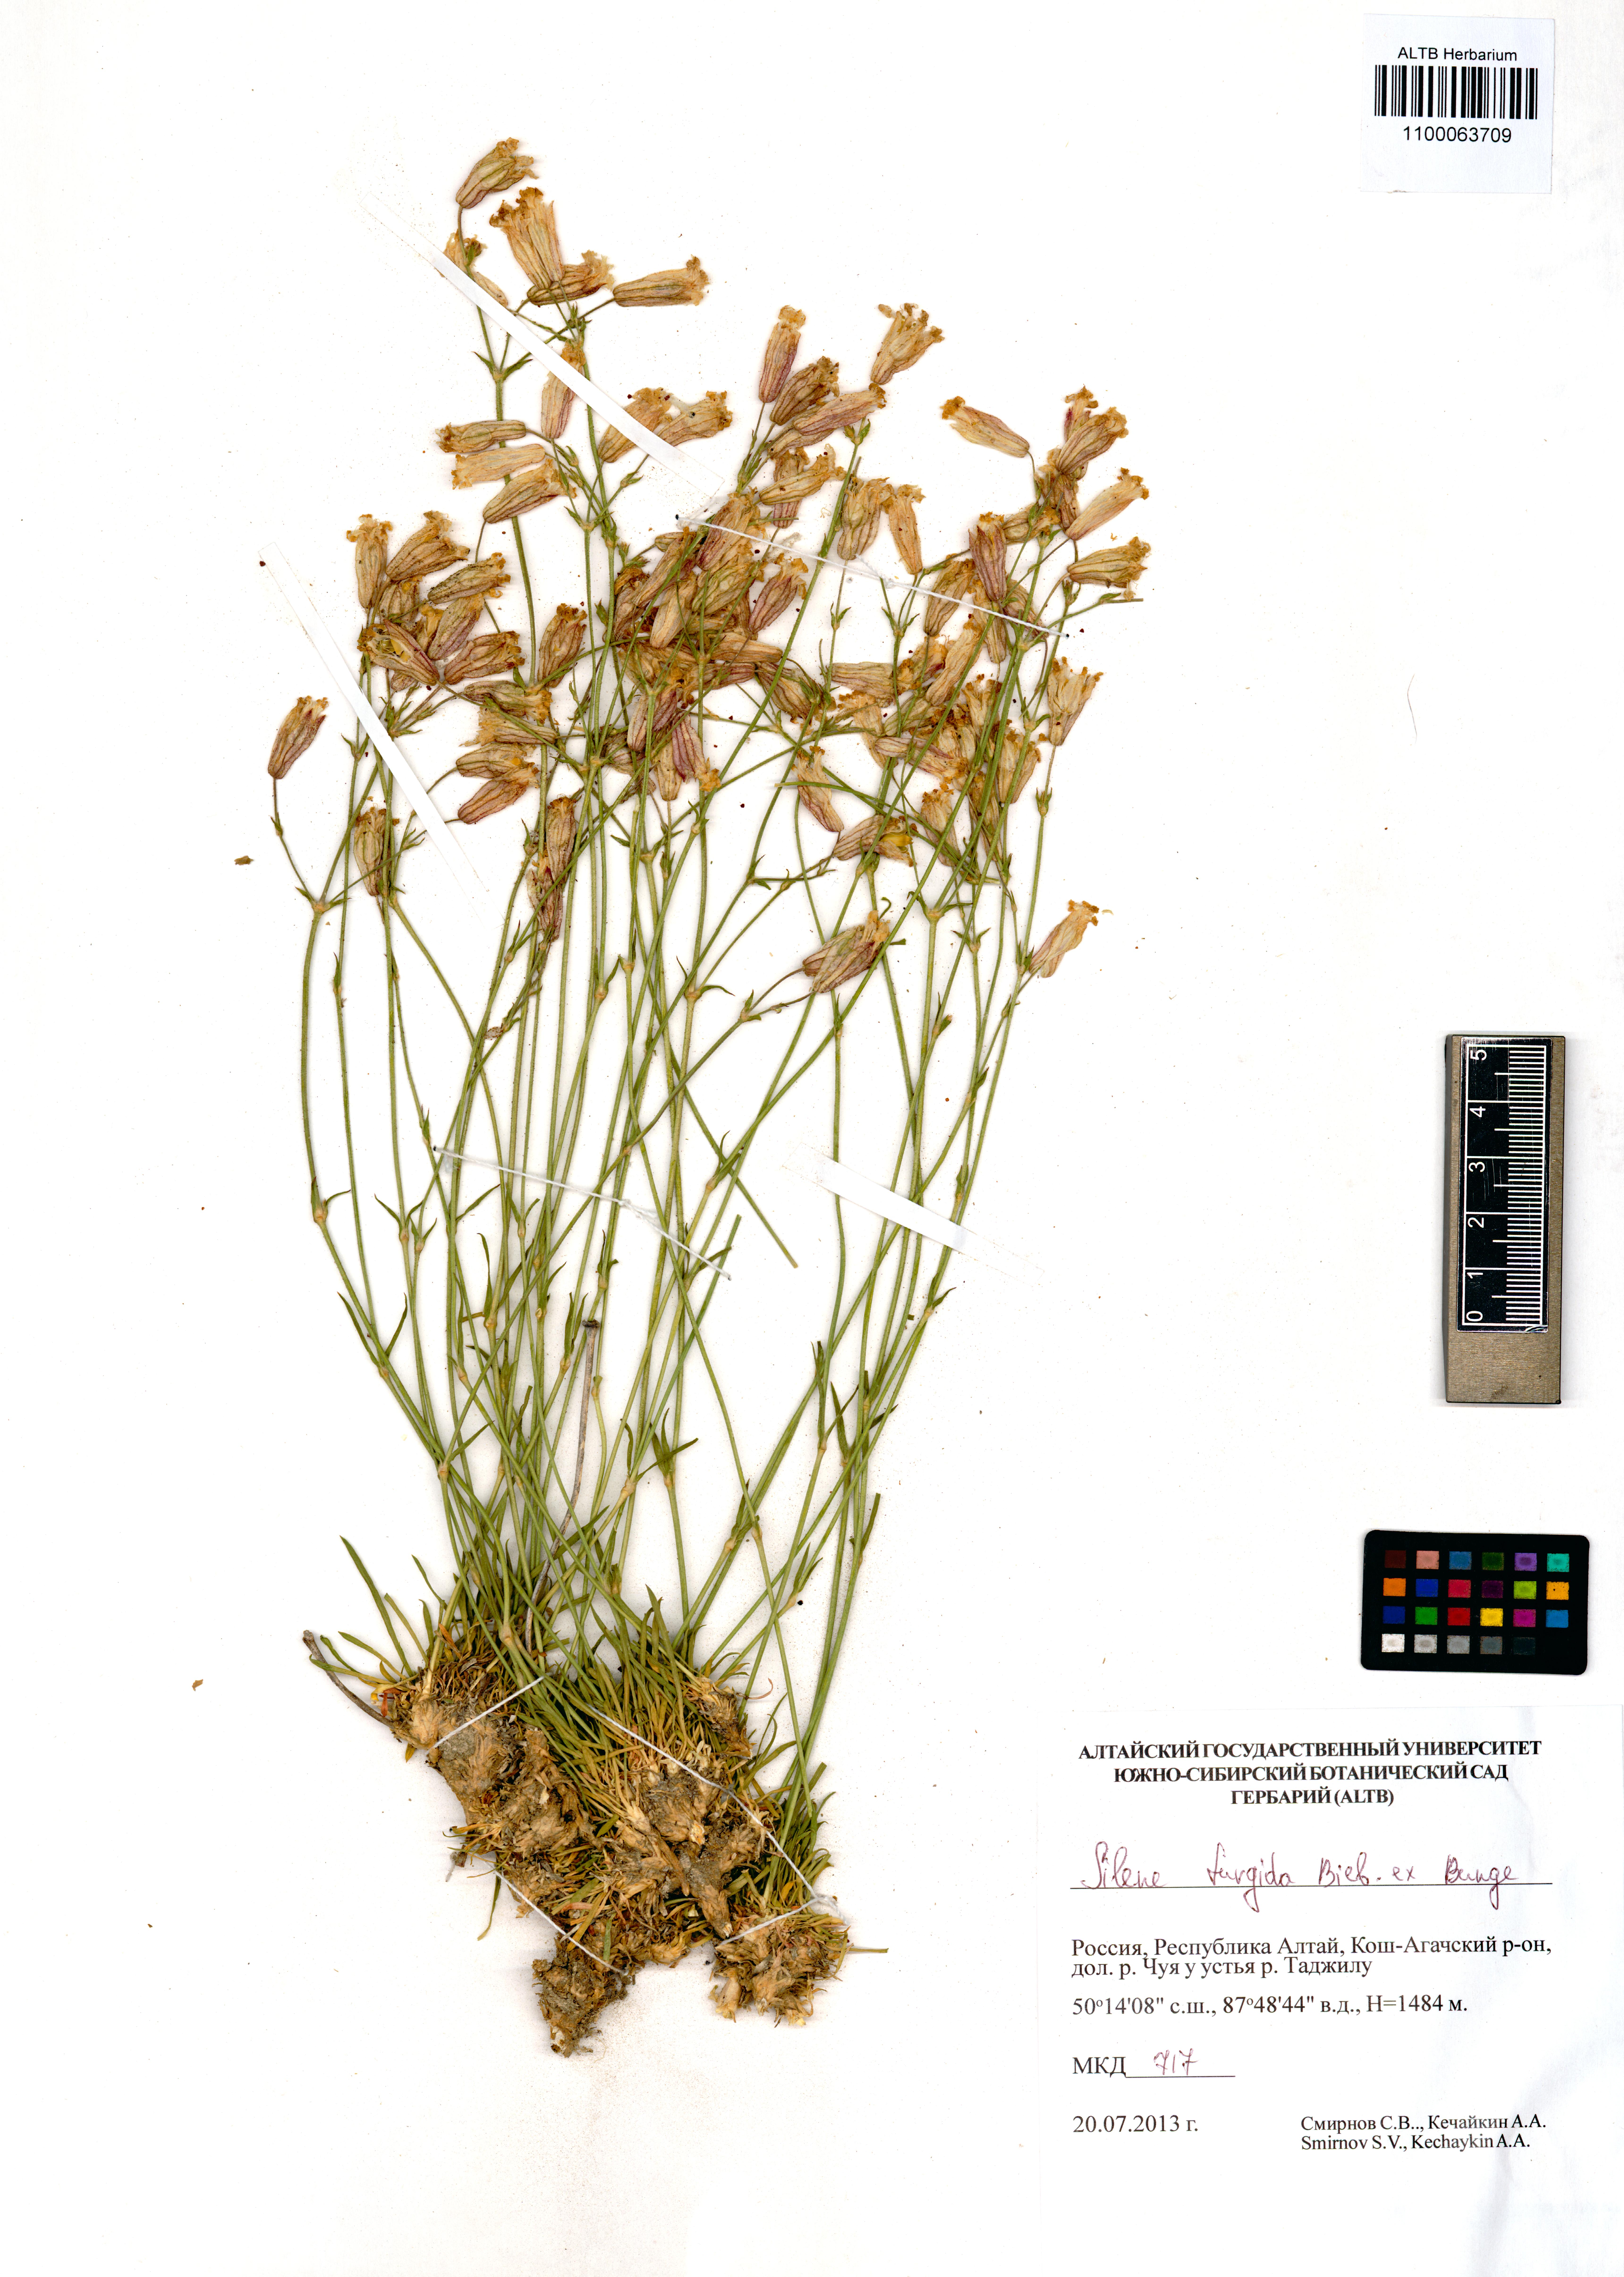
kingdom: Plantae
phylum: Tracheophyta
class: Magnoliopsida
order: Caryophyllales
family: Caryophyllaceae
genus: Silene
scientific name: Silene turgida
